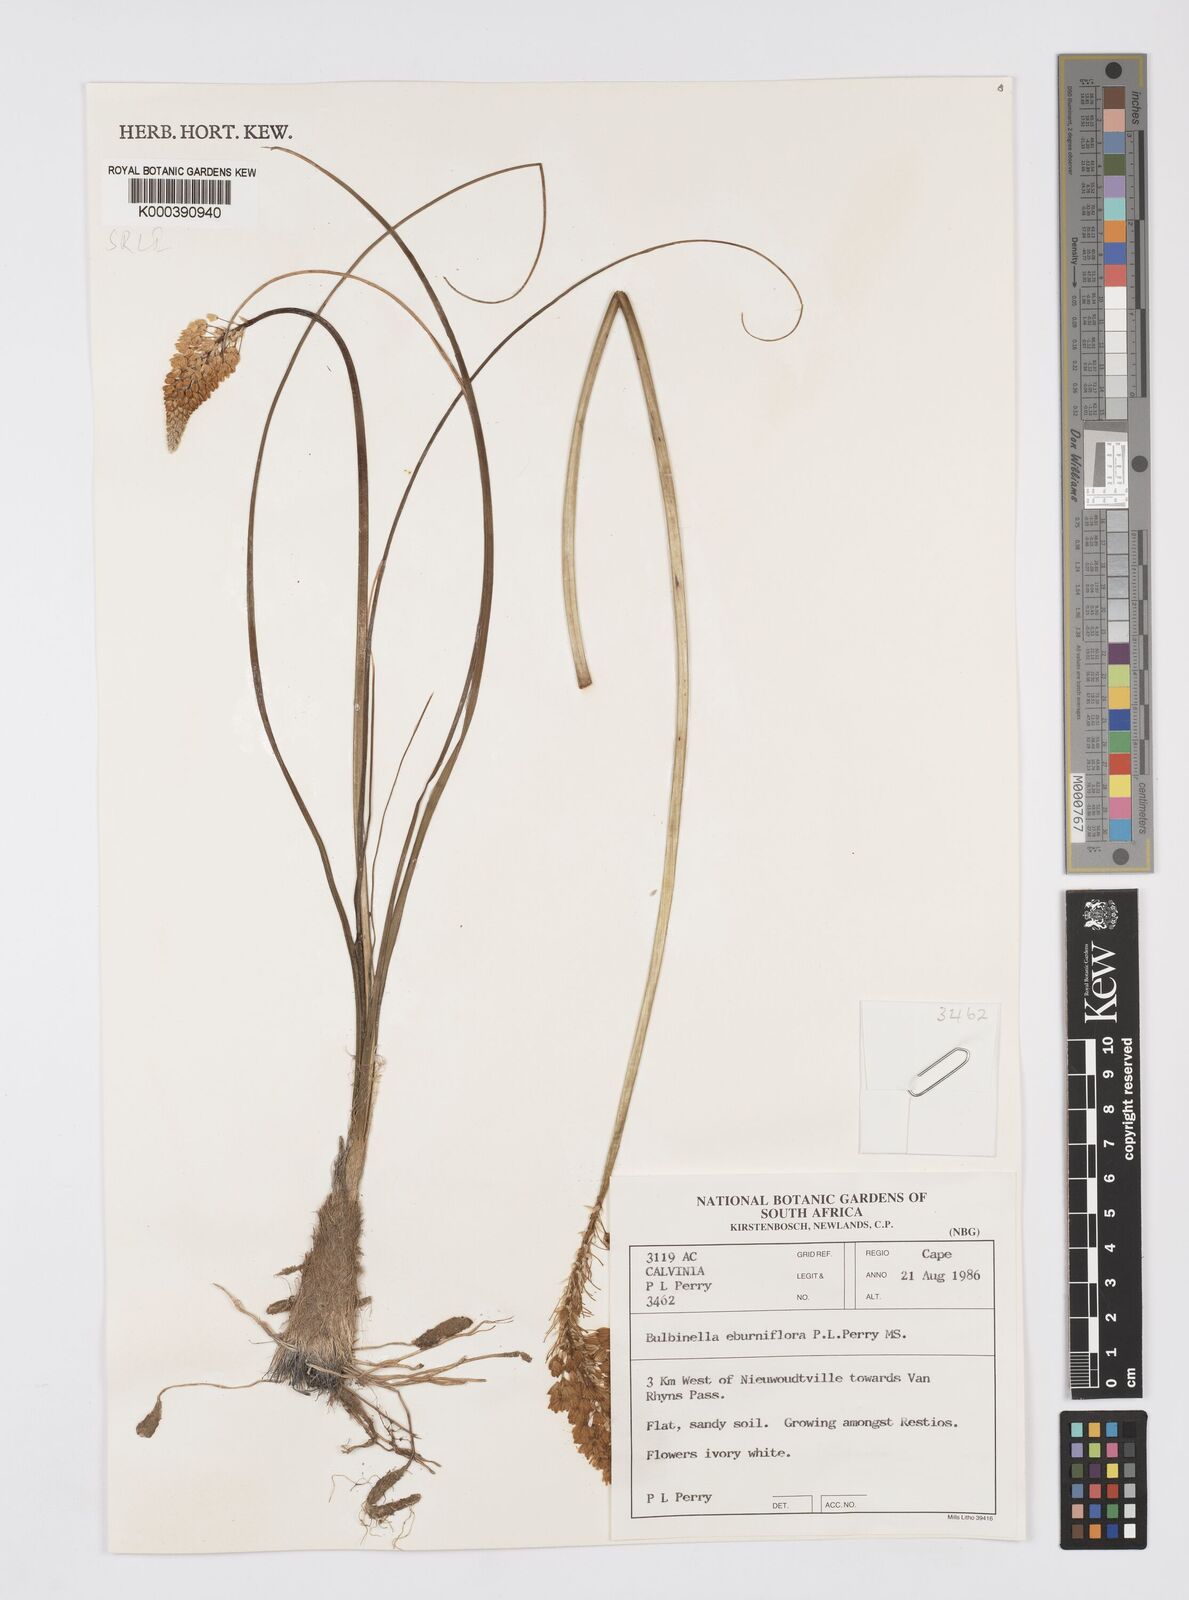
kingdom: Plantae
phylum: Tracheophyta
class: Liliopsida
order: Asparagales
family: Asphodelaceae
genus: Bulbinella
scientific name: Bulbinella eburniflora
